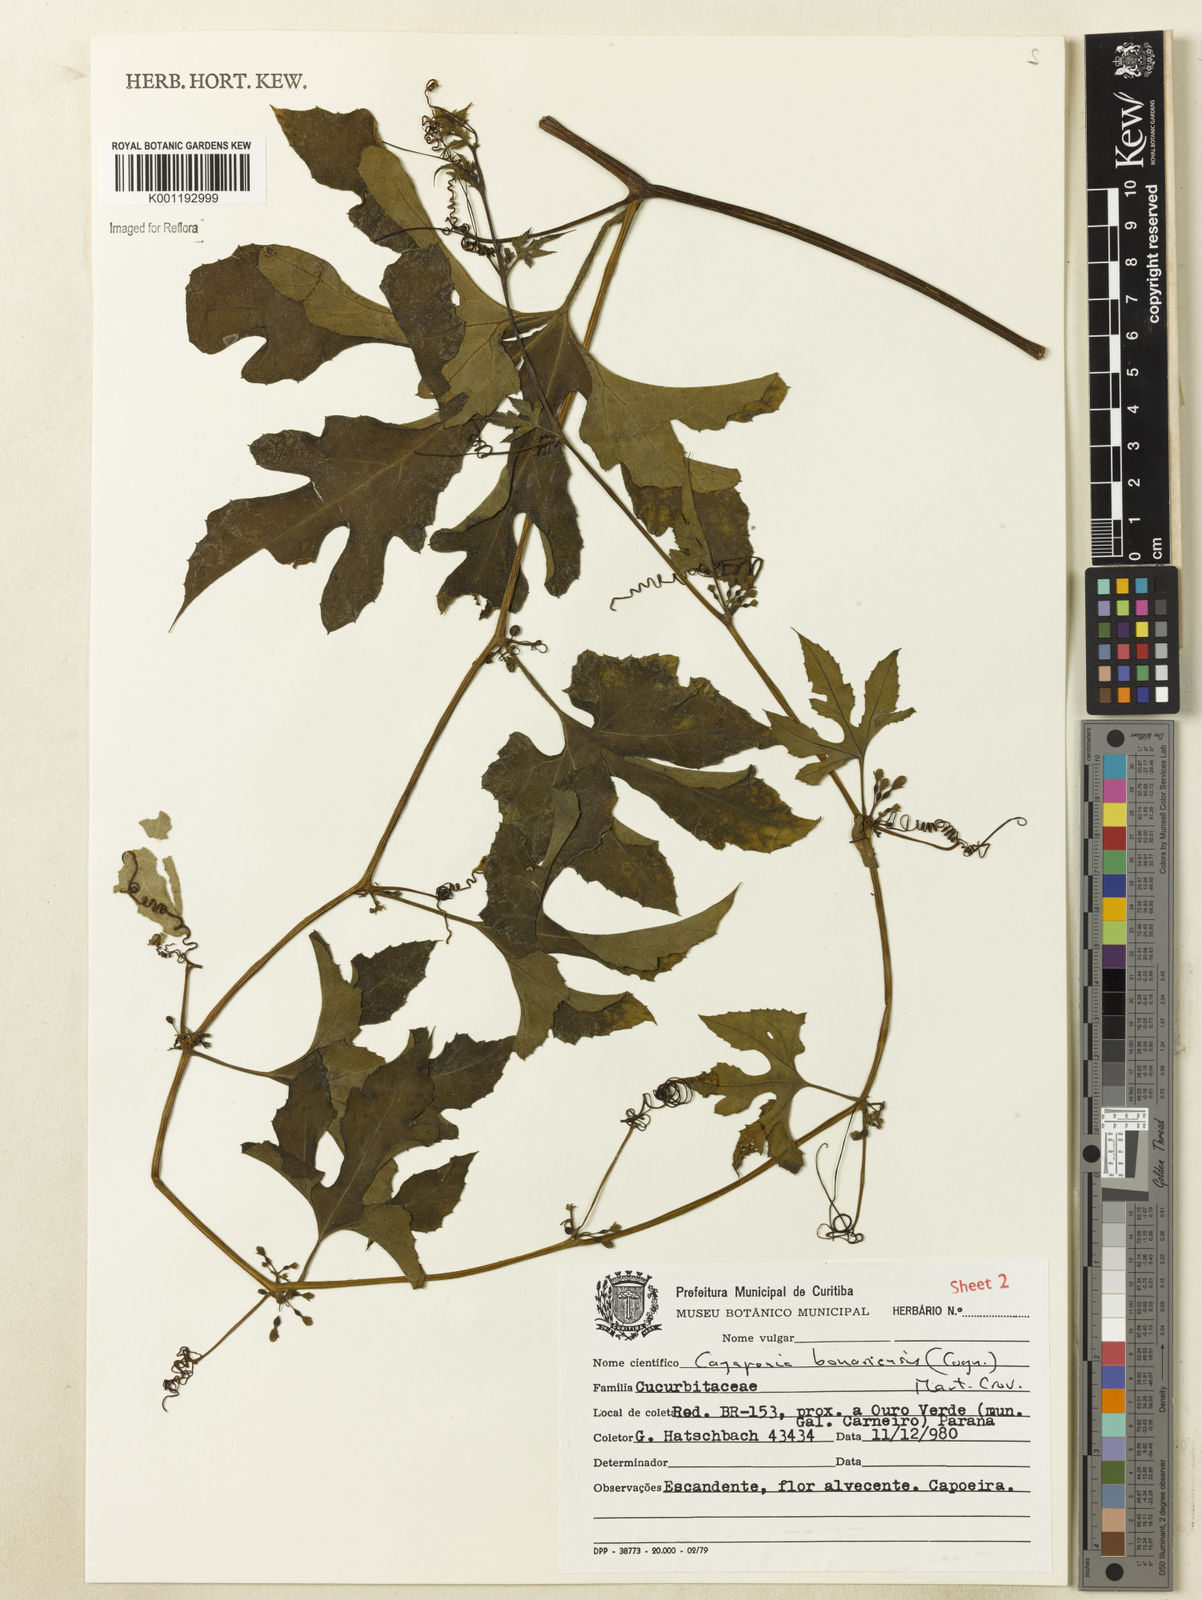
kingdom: Plantae
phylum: Tracheophyta
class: Magnoliopsida
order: Cucurbitales
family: Cucurbitaceae
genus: Cayaponia
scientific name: Cayaponia bonariensis
